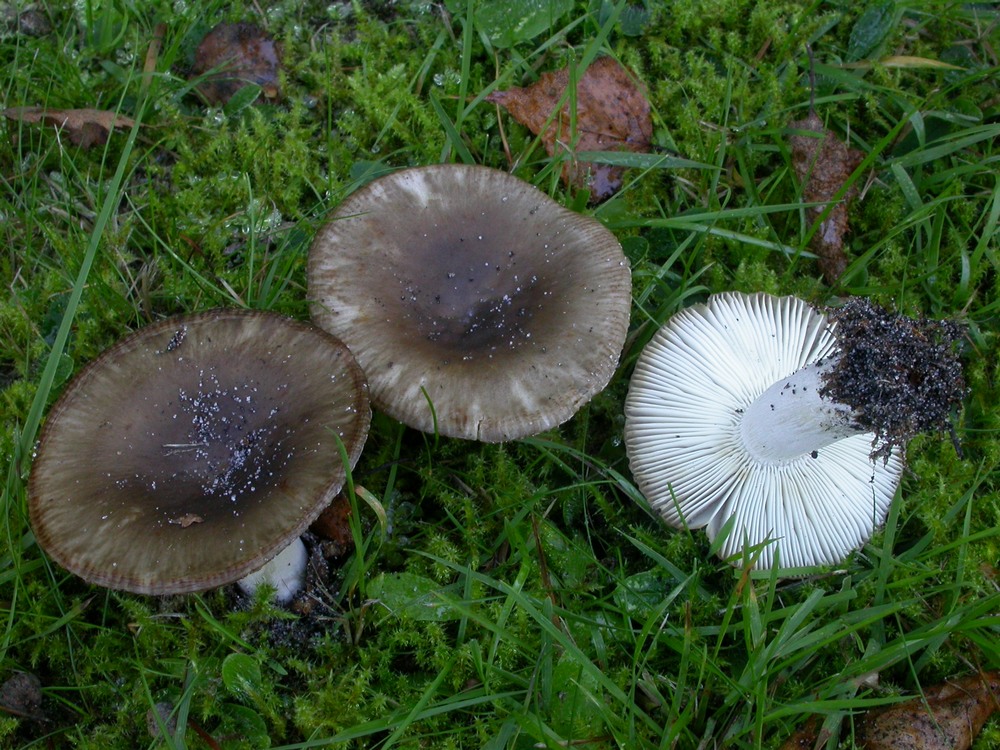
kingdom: Fungi
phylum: Basidiomycota
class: Agaricomycetes
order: Russulales
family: Russulaceae
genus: Russula
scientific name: Russula amoenolens
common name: skarp kam-skørhat
